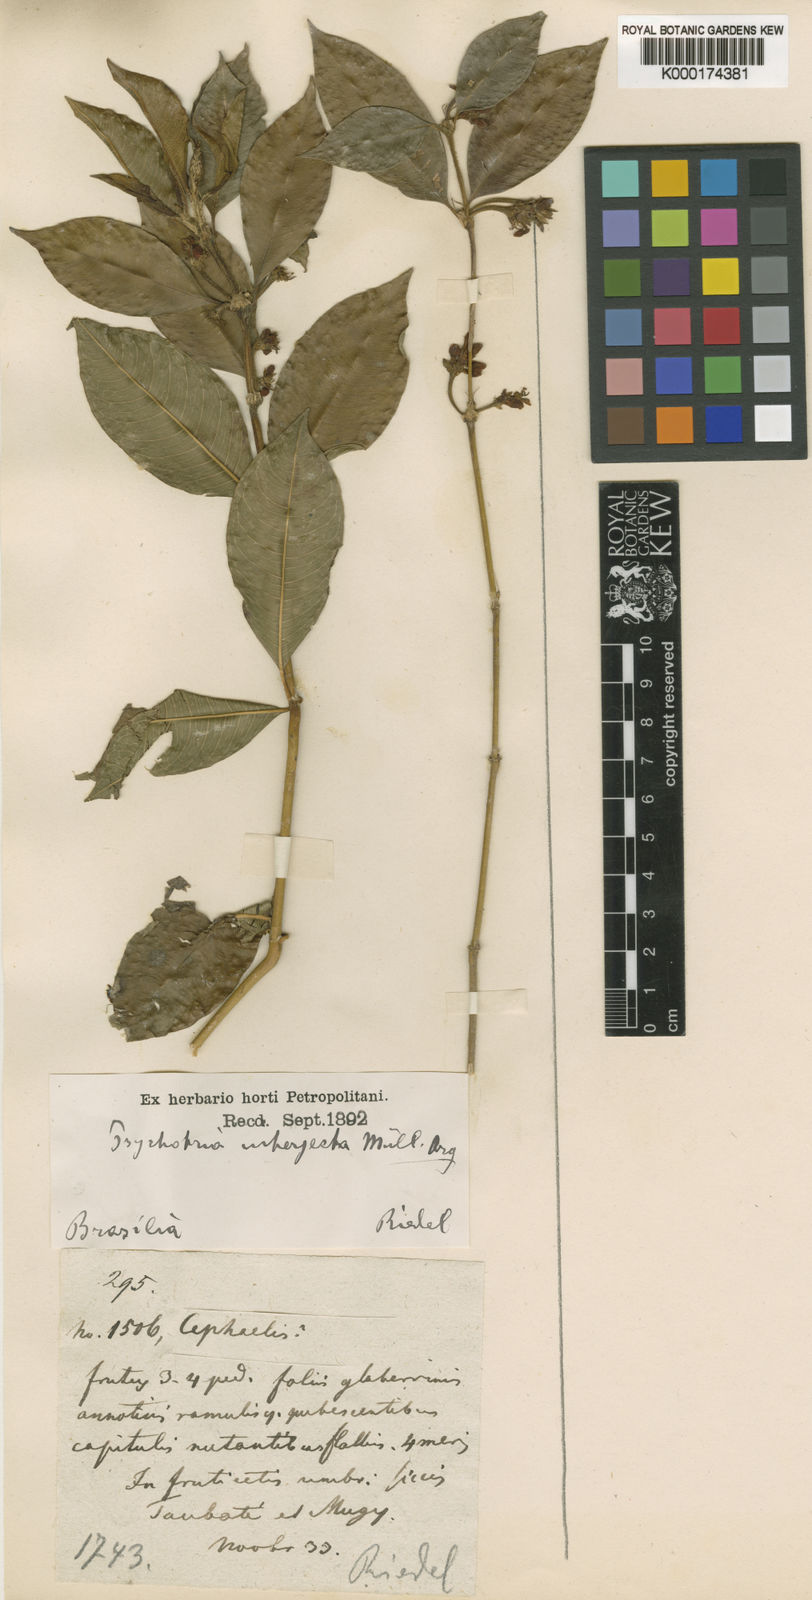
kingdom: Plantae
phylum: Tracheophyta
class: Magnoliopsida
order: Gentianales
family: Rubiaceae
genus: Psychotria
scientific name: Psychotria
